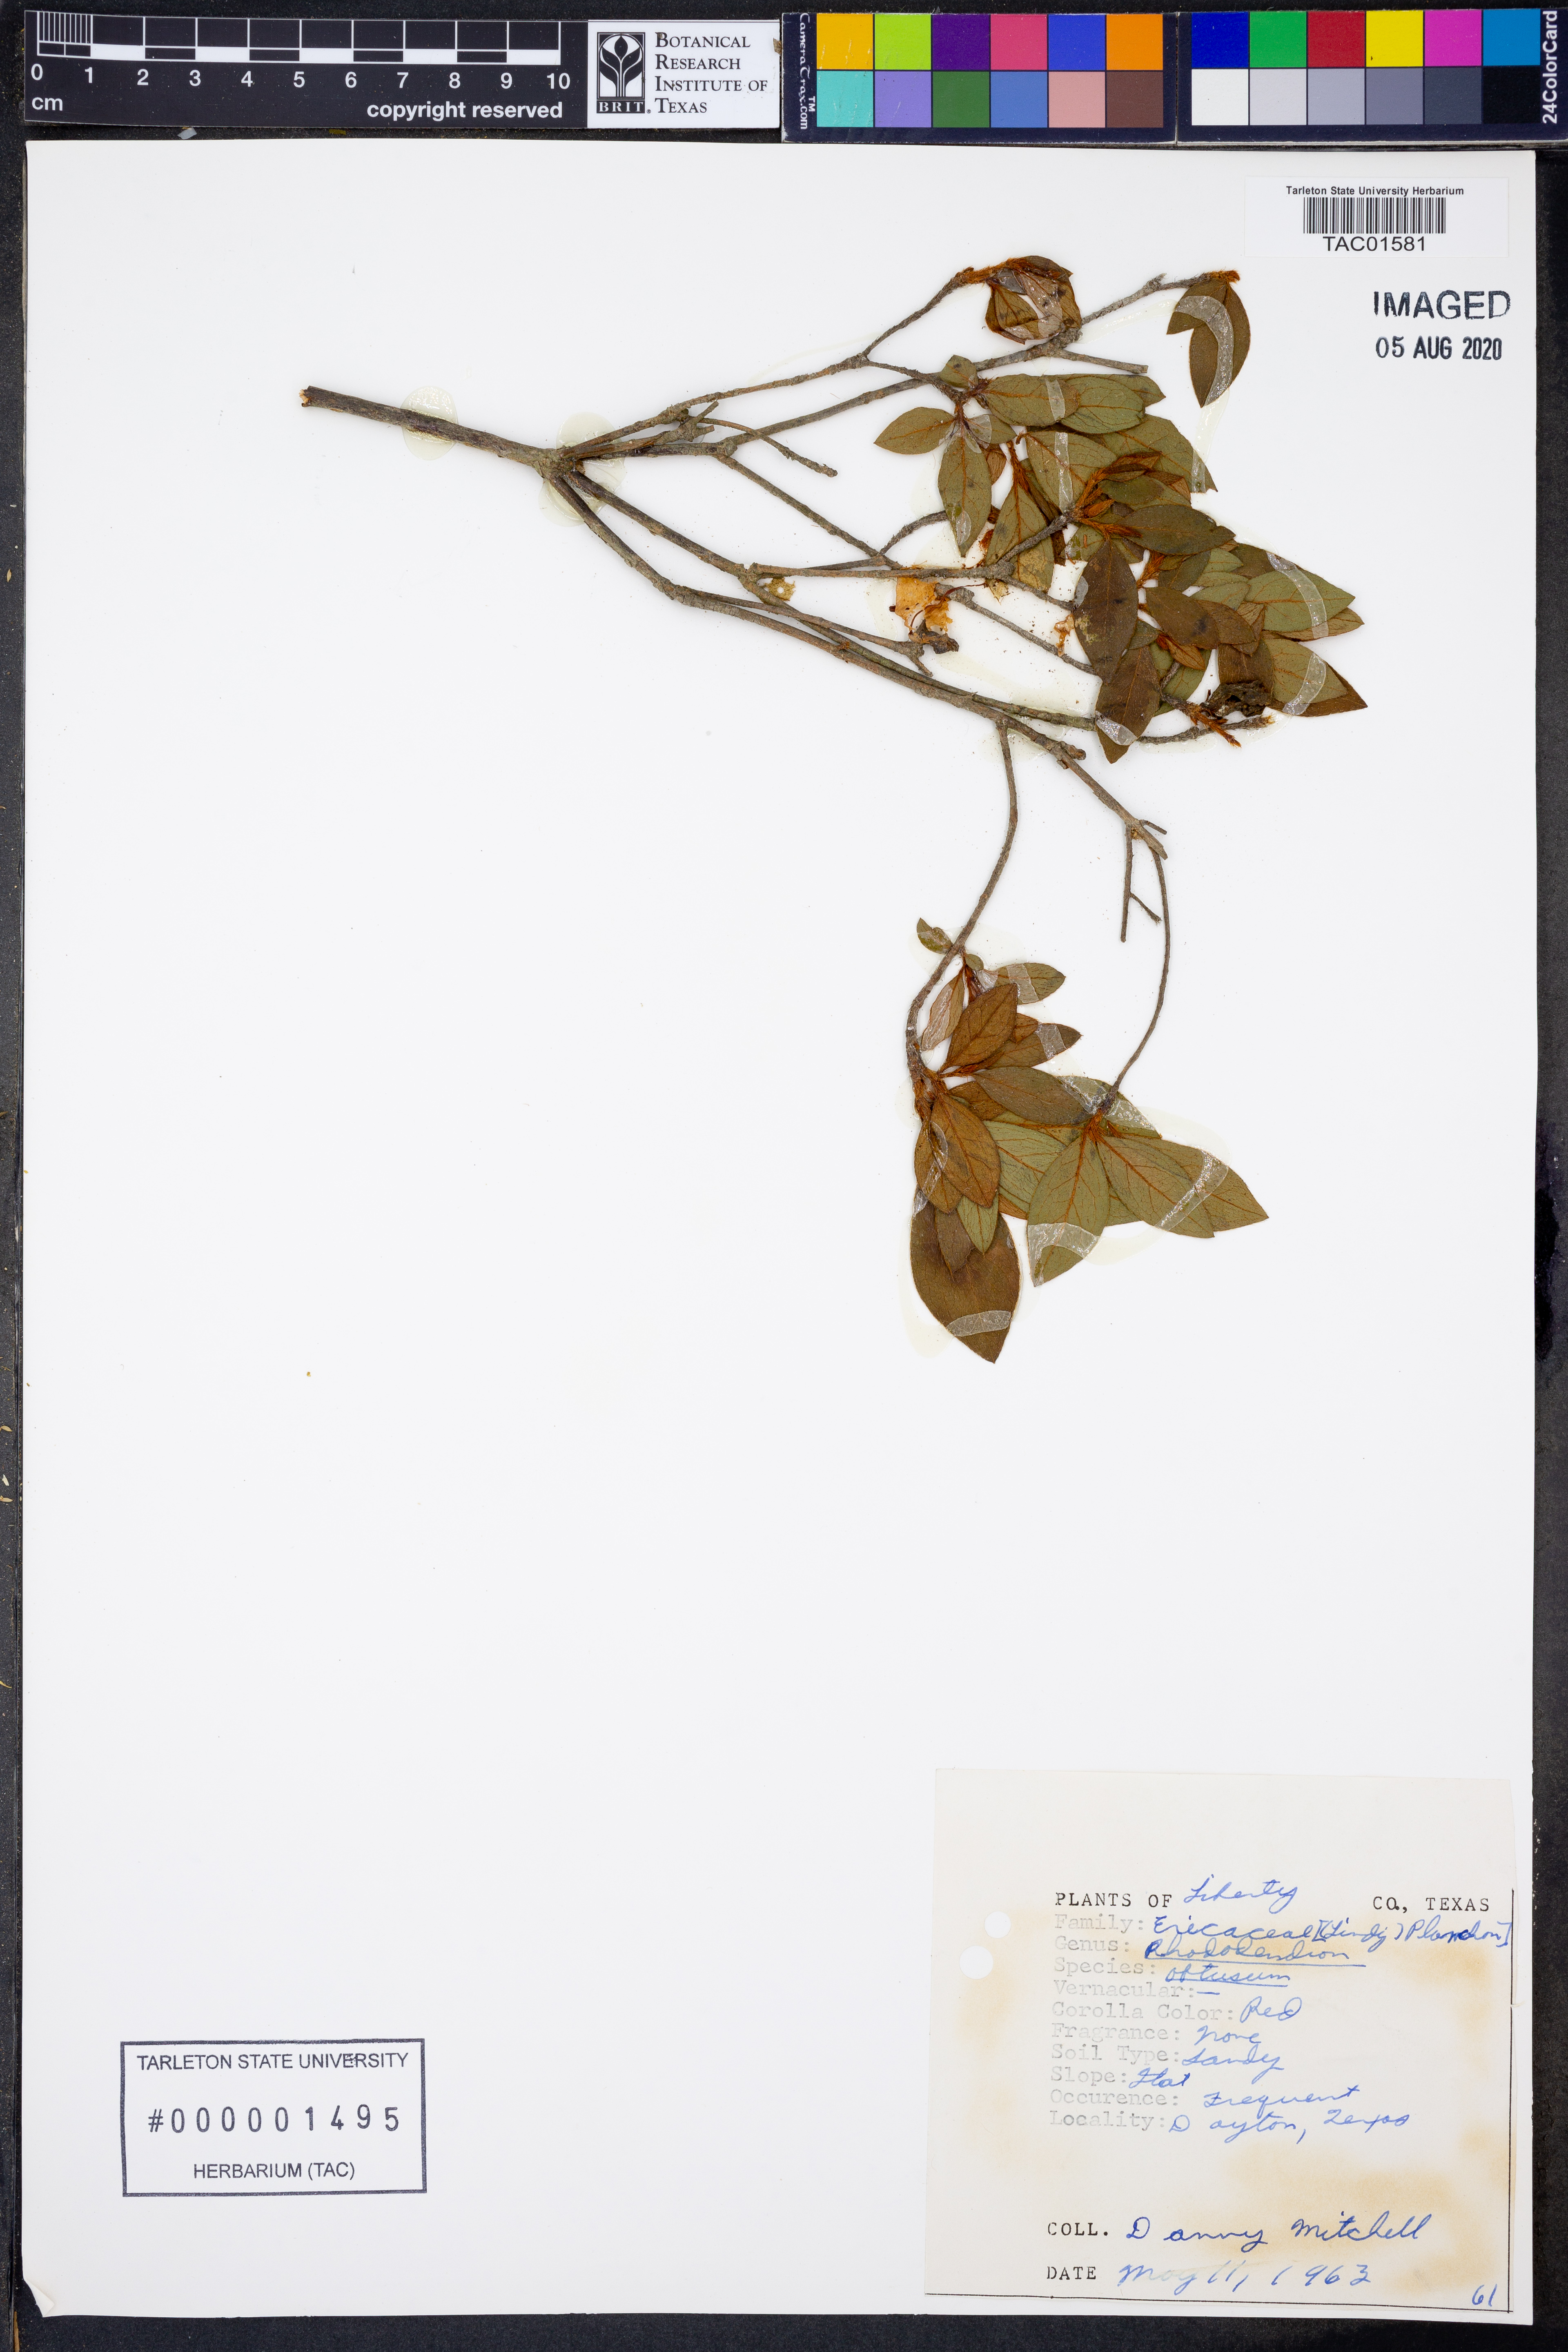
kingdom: Plantae
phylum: Tracheophyta
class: Magnoliopsida
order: Ericales
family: Ericaceae
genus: Rhododendron
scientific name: Rhododendron ponticum
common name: Rhododendron
